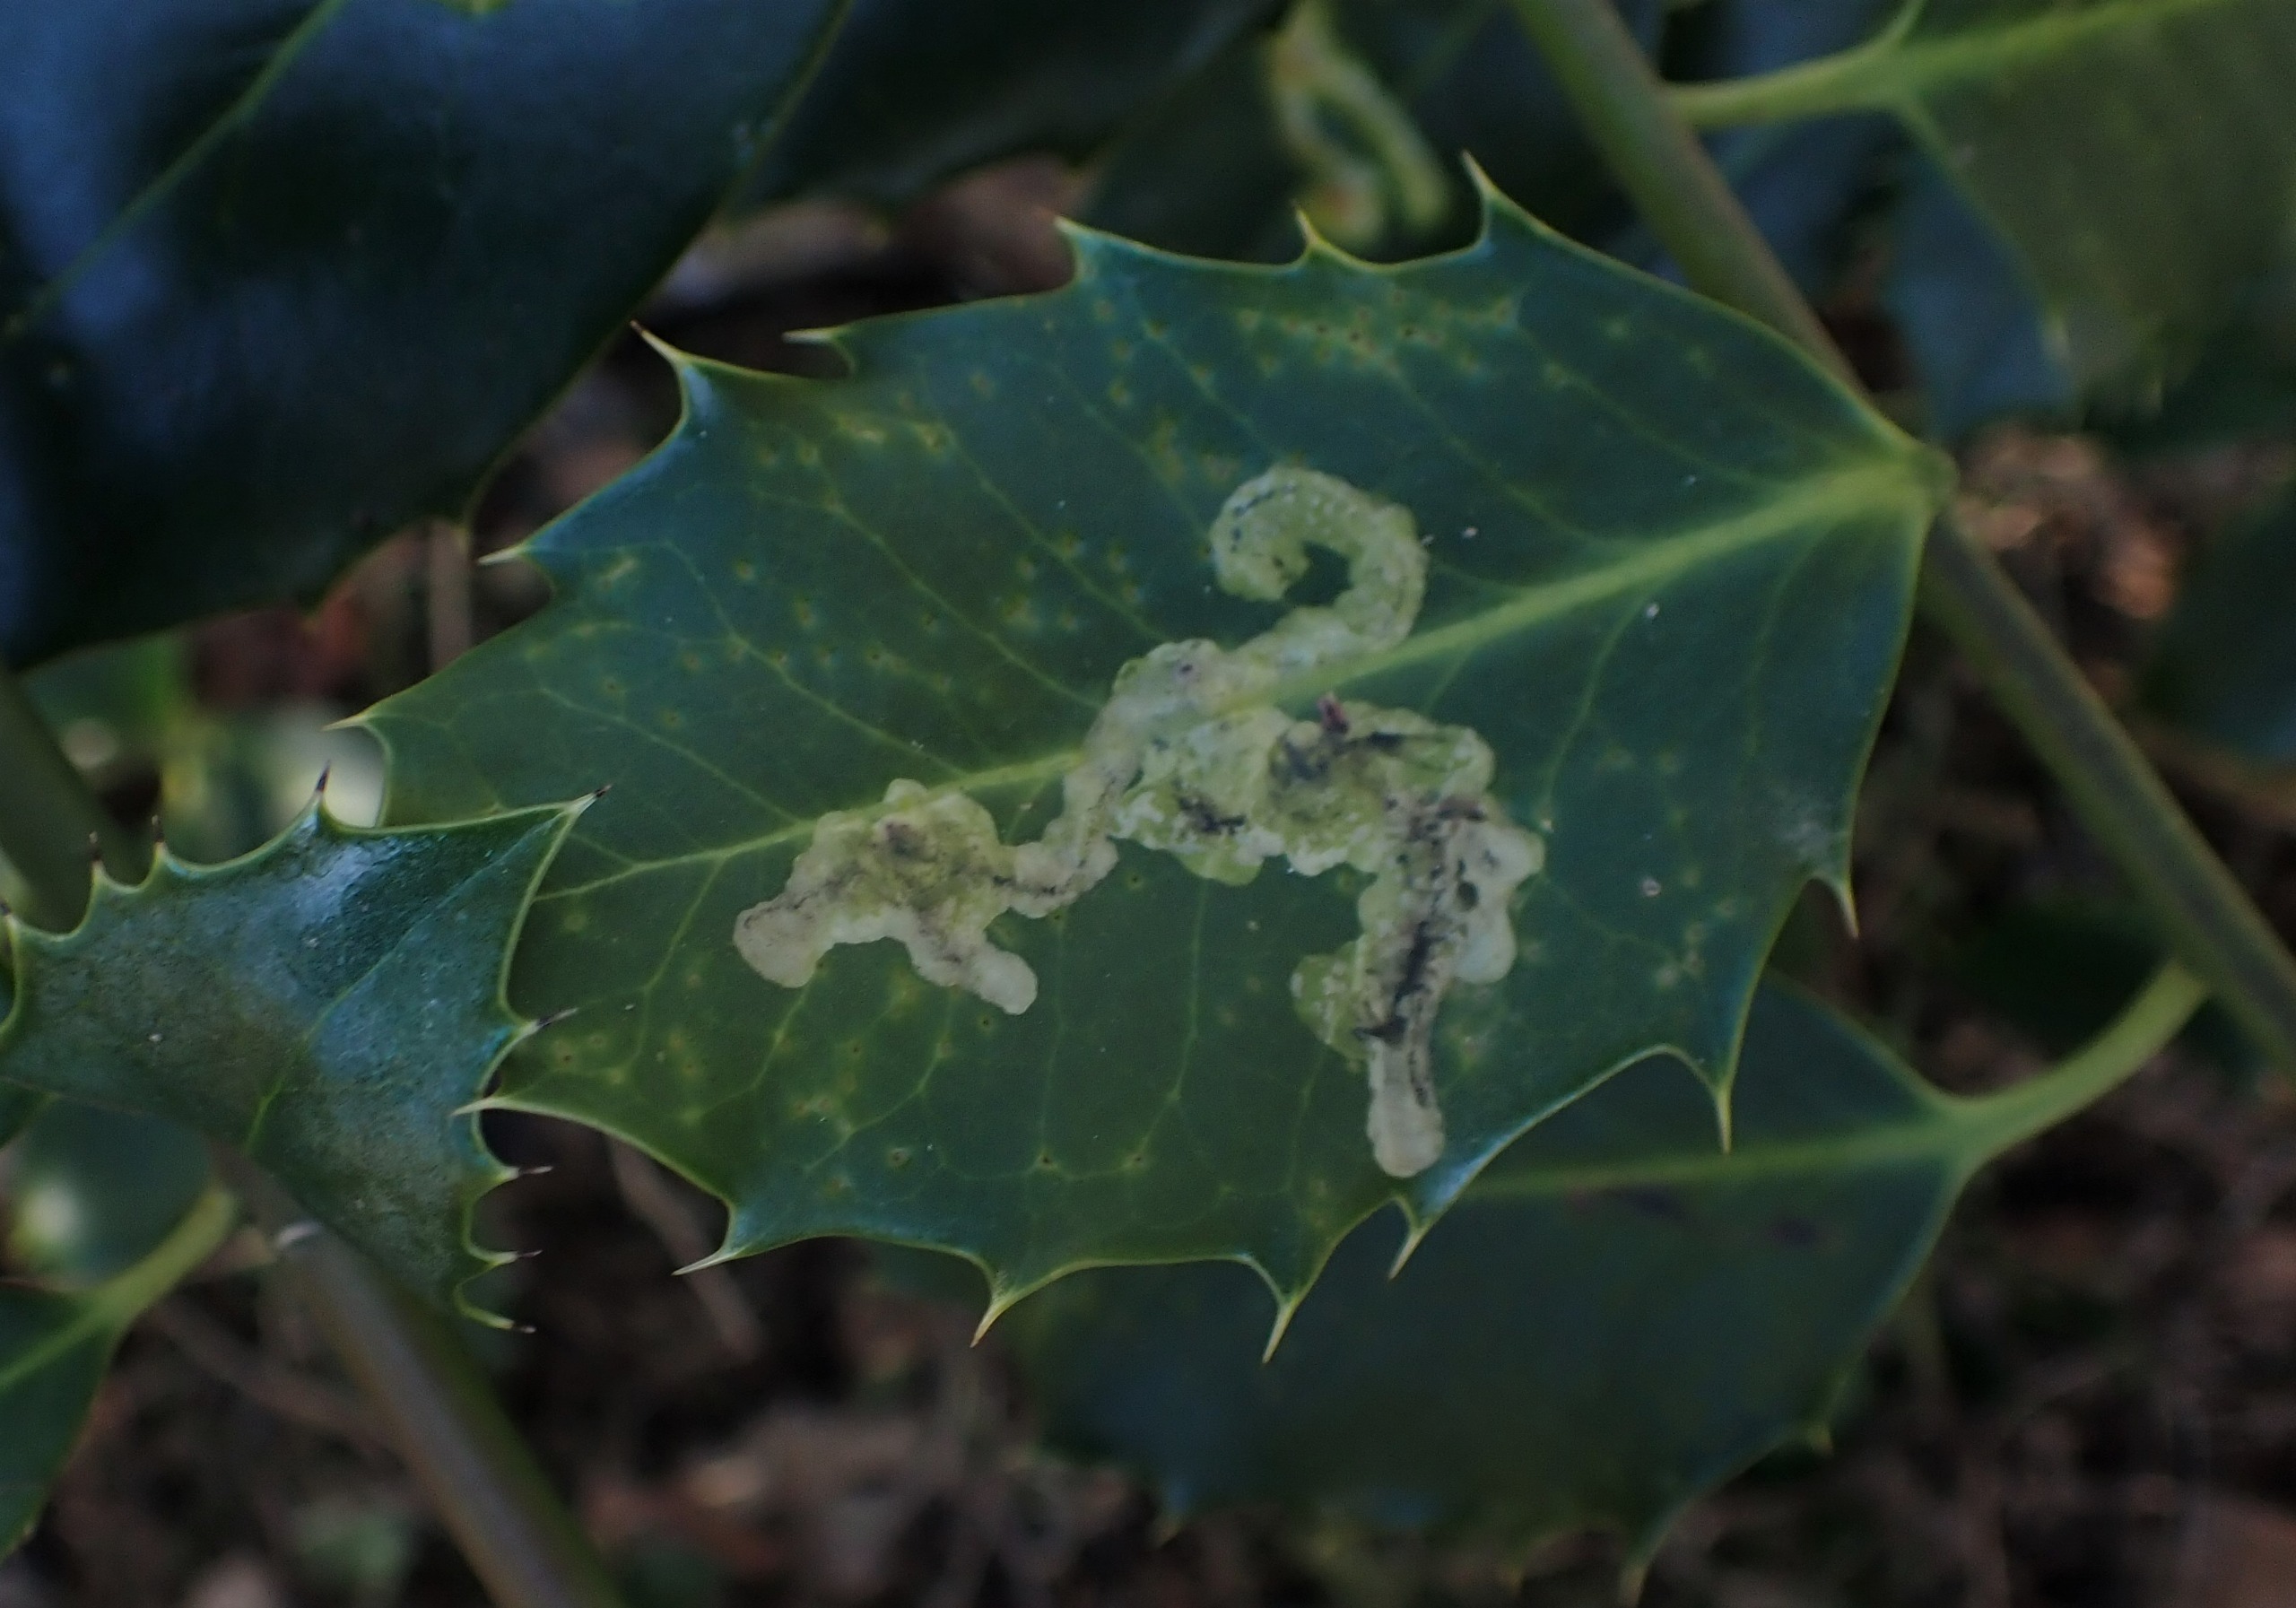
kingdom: Animalia
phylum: Arthropoda
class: Insecta
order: Diptera
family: Agromyzidae
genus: Phytomyza
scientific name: Phytomyza ilicis
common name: Kristtornminérflue
